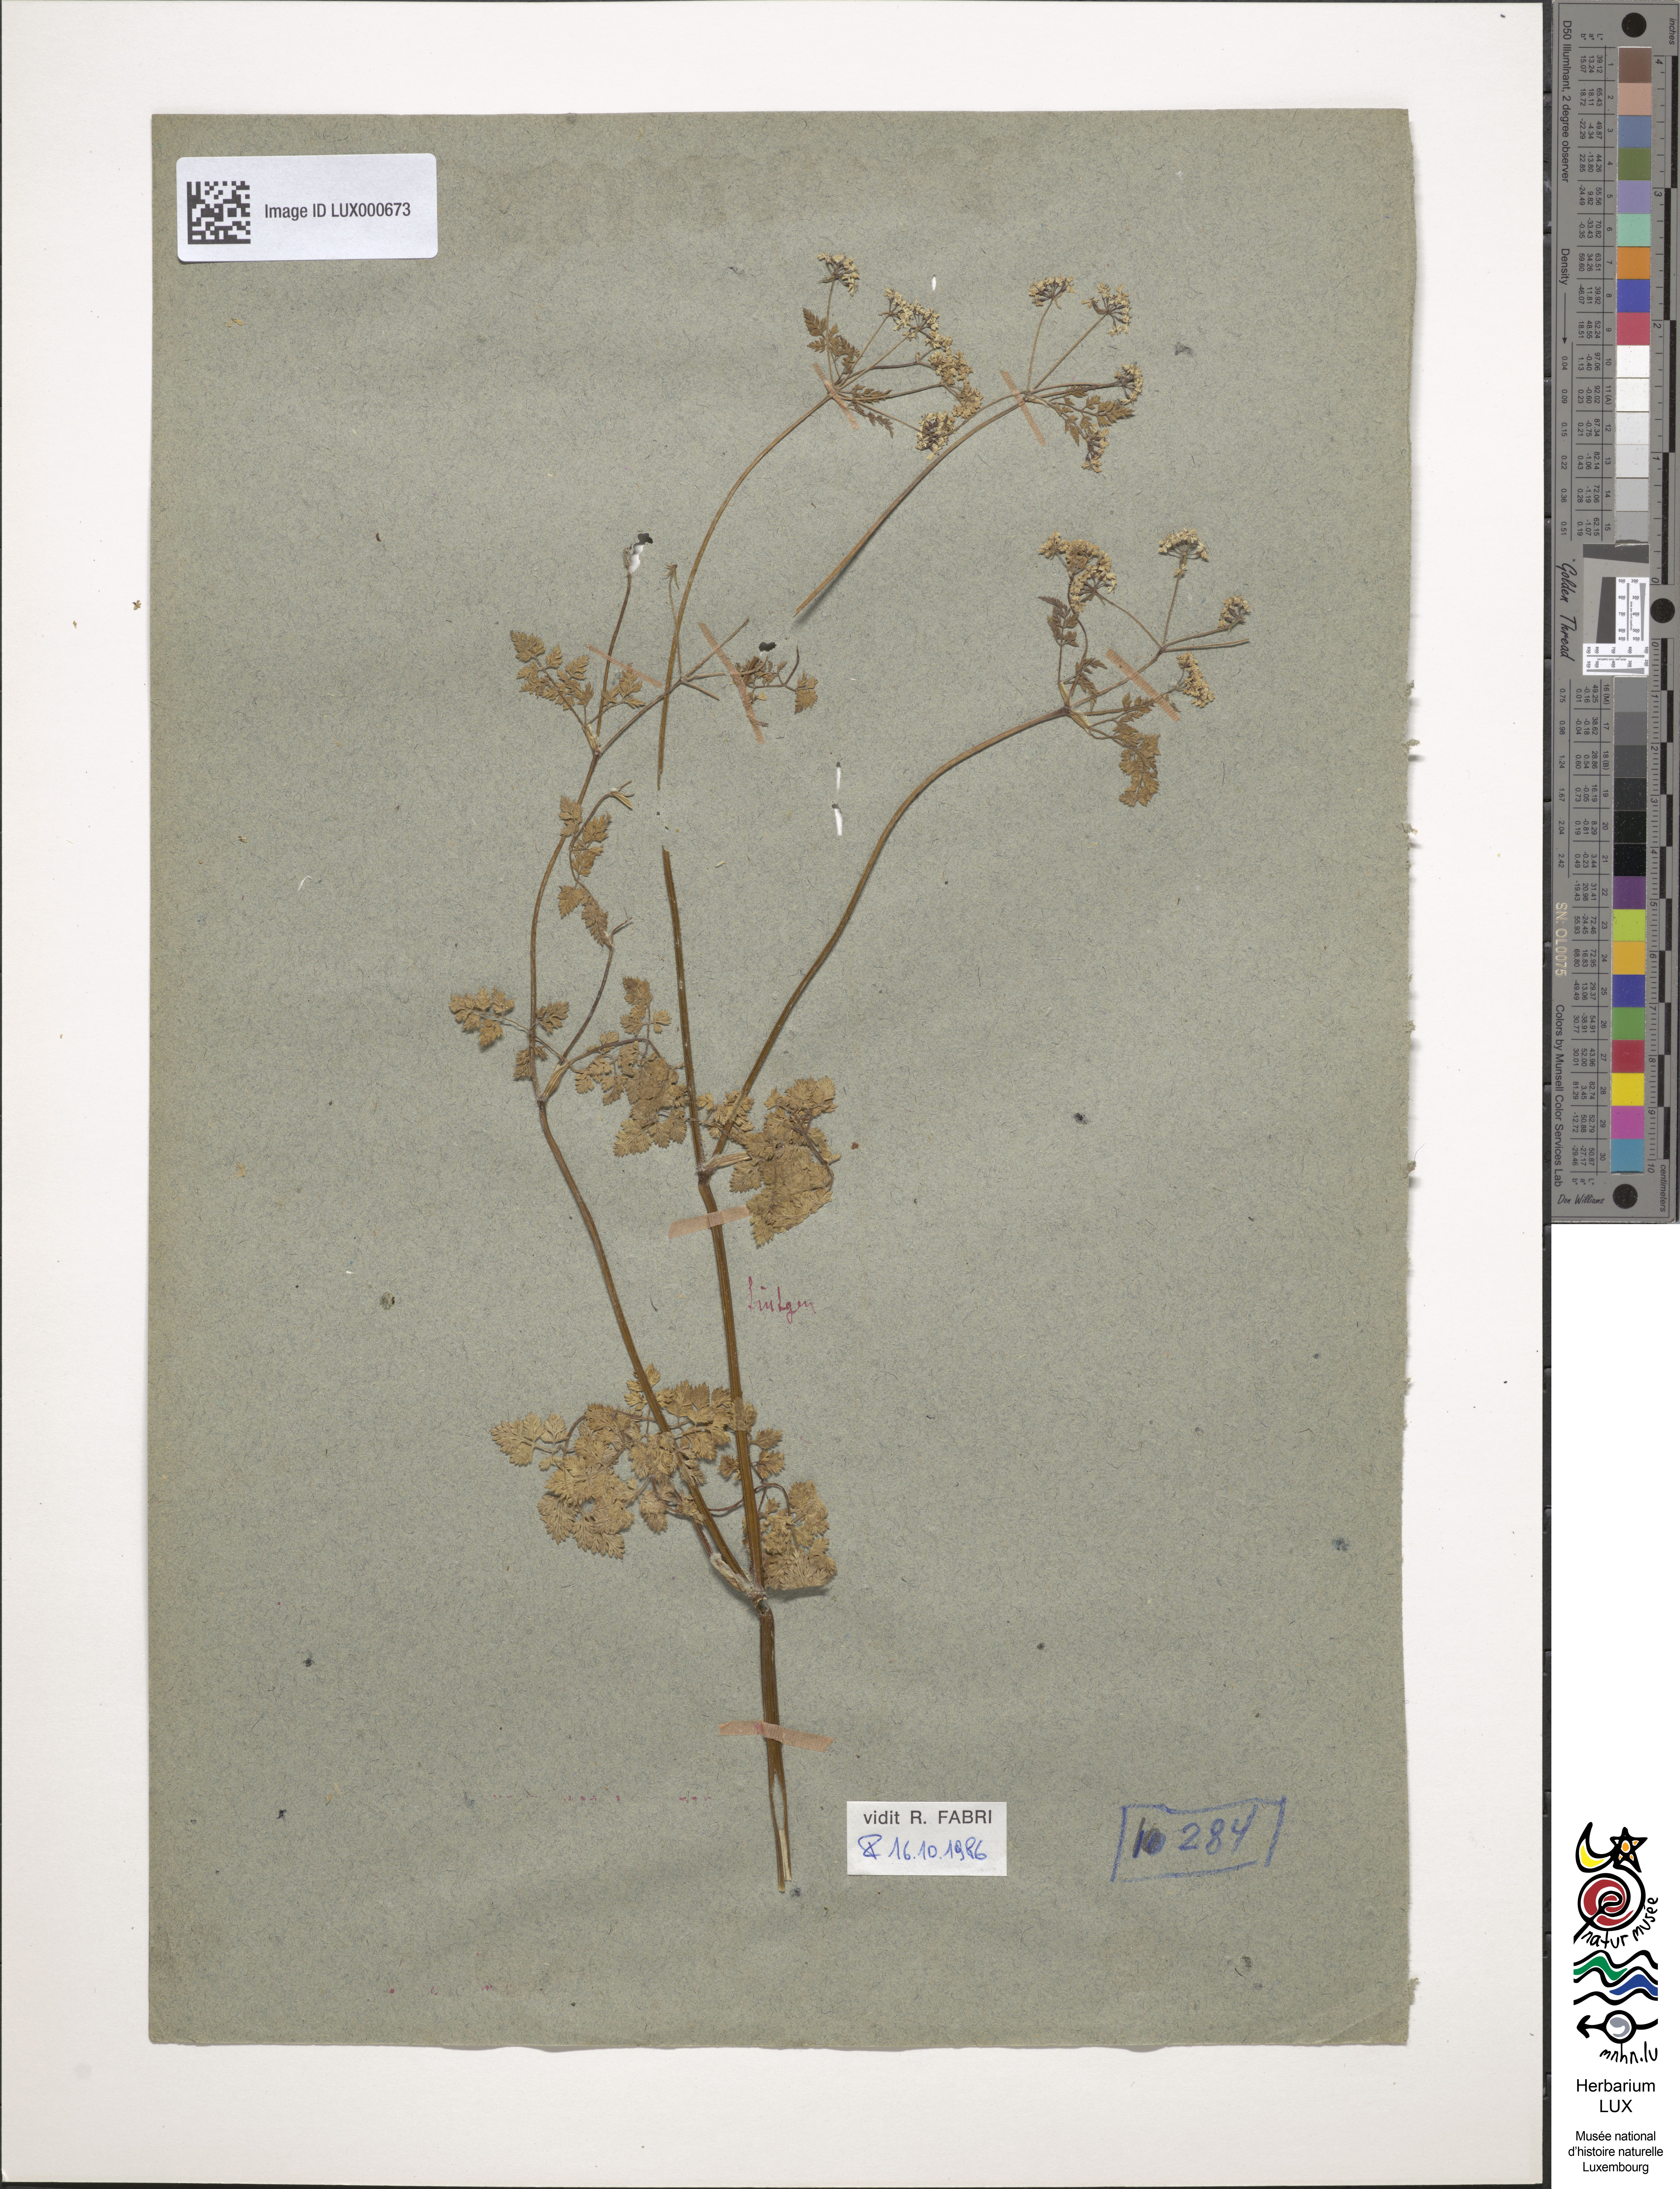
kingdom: Plantae
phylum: Tracheophyta
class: Magnoliopsida
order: Apiales
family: Apiaceae
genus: Anthriscus
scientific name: Anthriscus cerefolium
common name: Garden chervil
